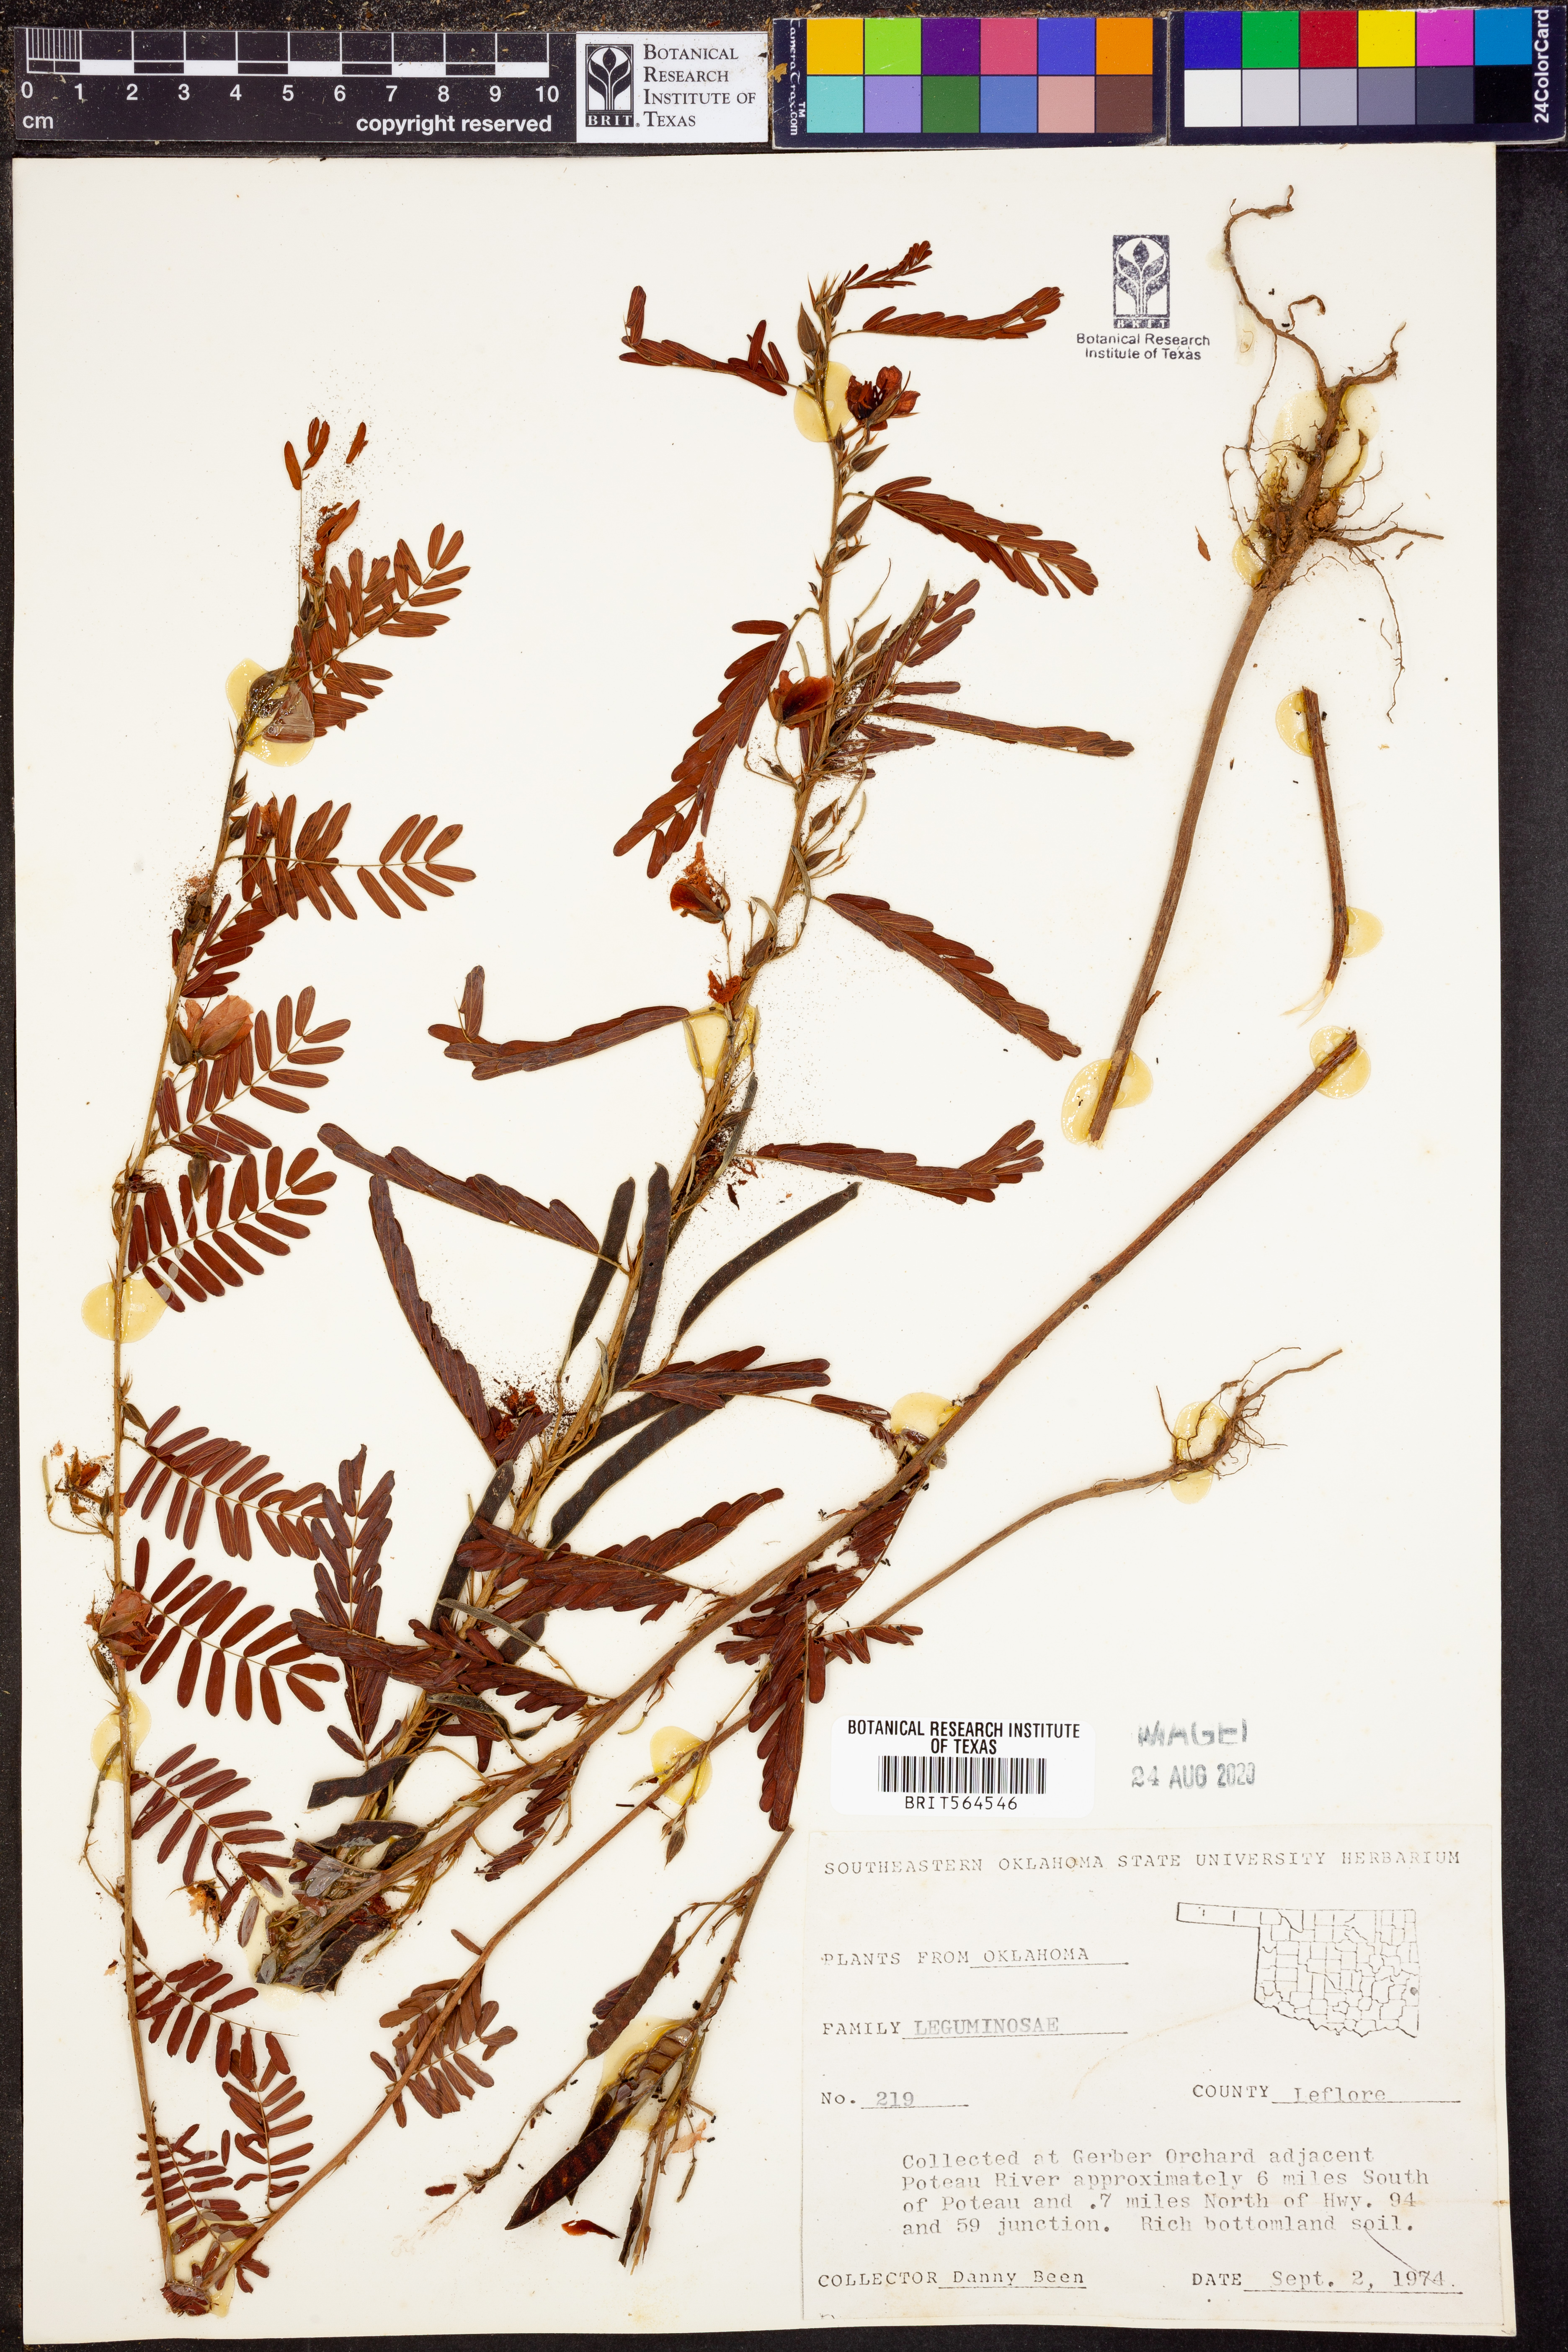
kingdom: Plantae
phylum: Tracheophyta
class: Magnoliopsida
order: Fabales
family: Fabaceae
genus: Chamaecrista
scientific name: Chamaecrista fasciculata
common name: Golden cassia
